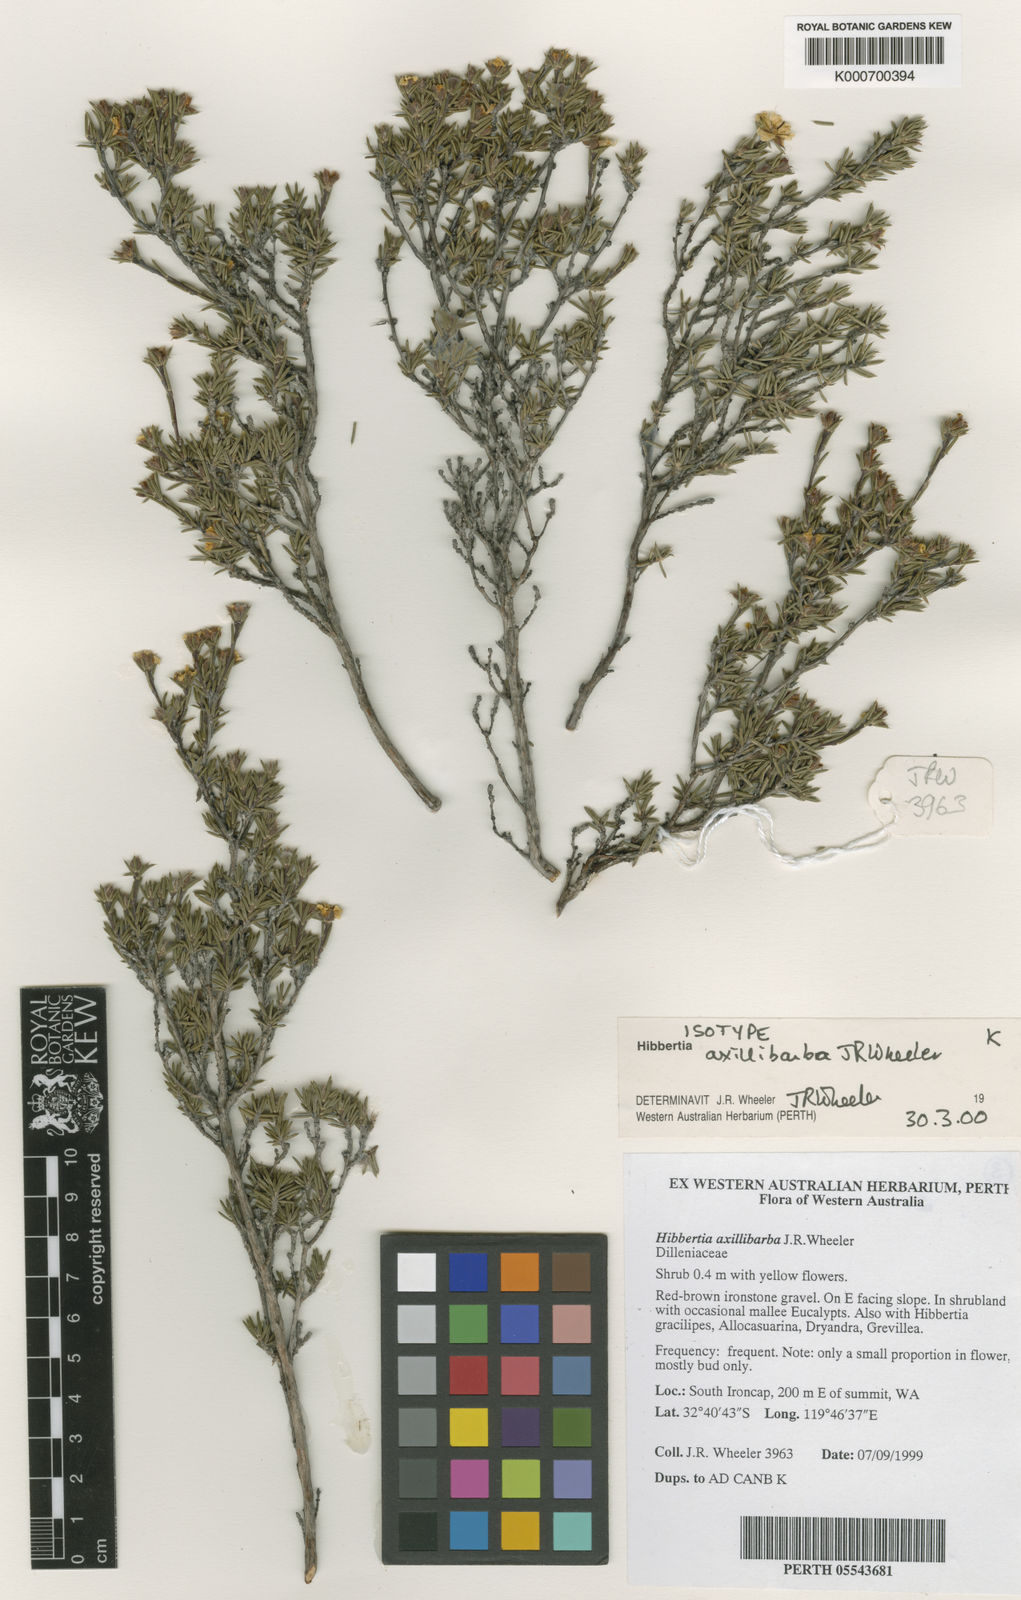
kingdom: Plantae
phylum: Tracheophyta
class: Magnoliopsida
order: Dilleniales
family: Dilleniaceae
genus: Hibbertia
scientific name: Hibbertia axillibarba
